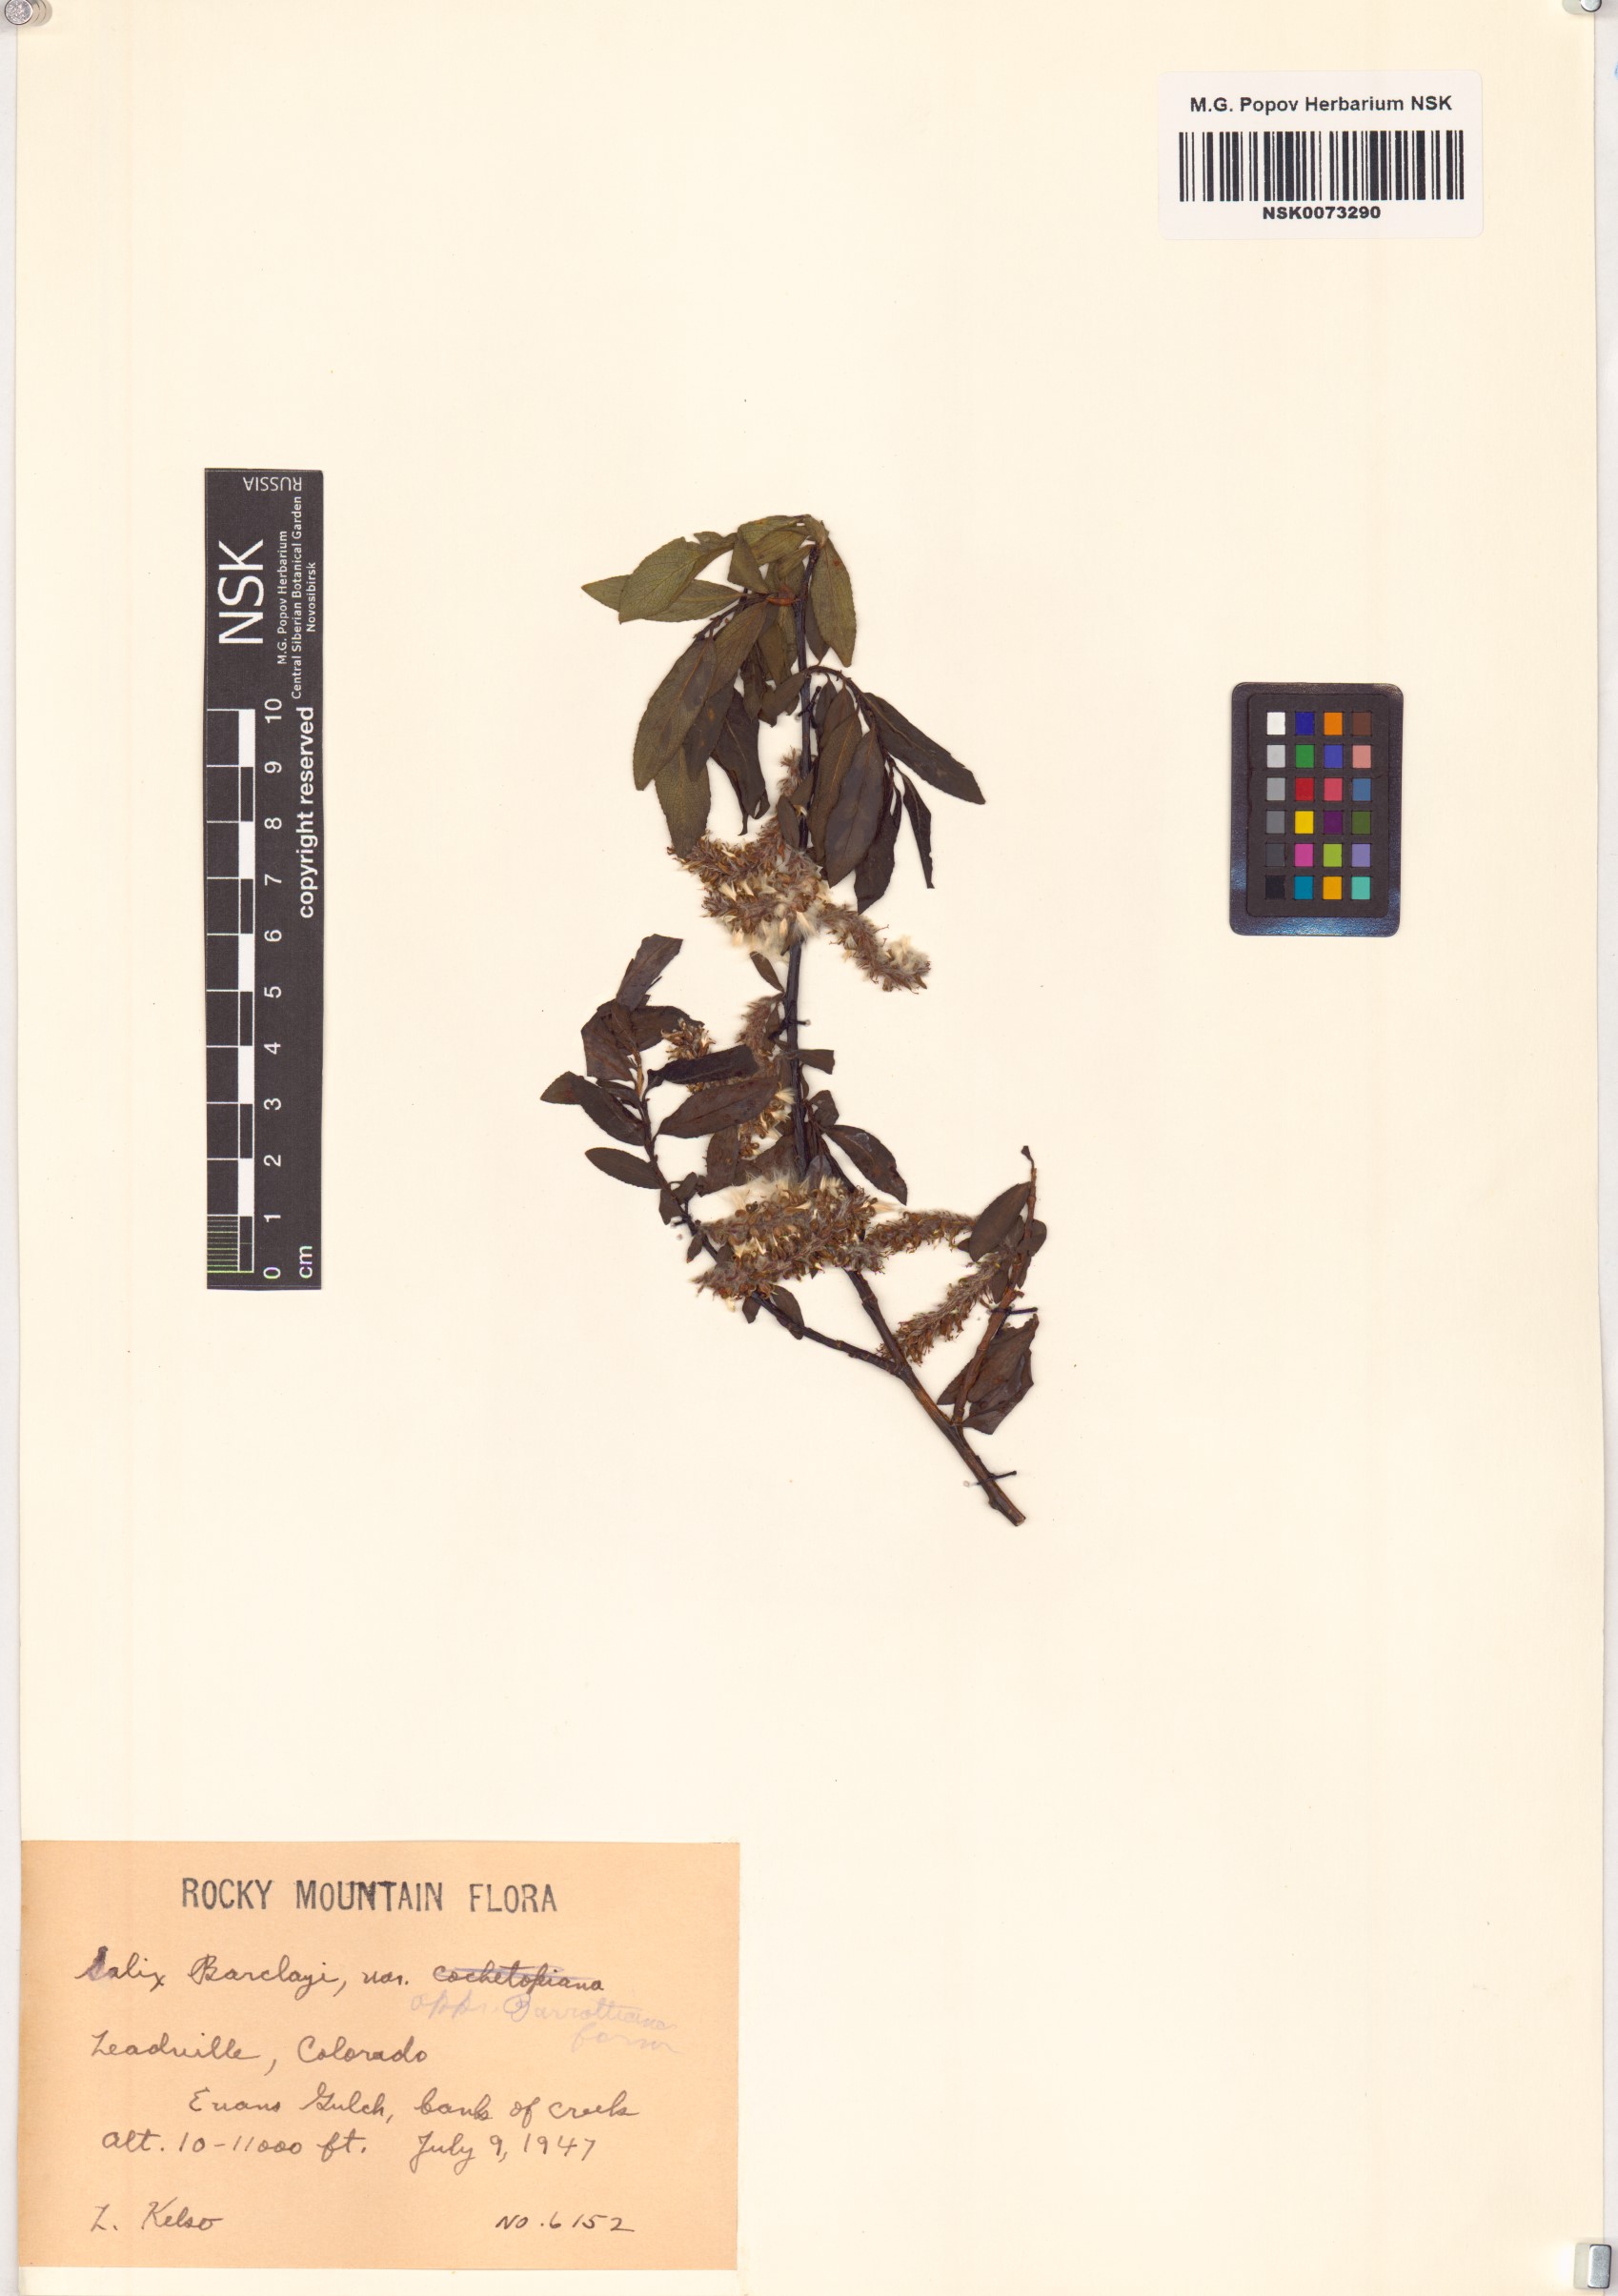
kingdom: Plantae
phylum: Tracheophyta
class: Magnoliopsida
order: Malpighiales
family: Salicaceae
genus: Salix
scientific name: Salix barclayi
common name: Mountain willow
